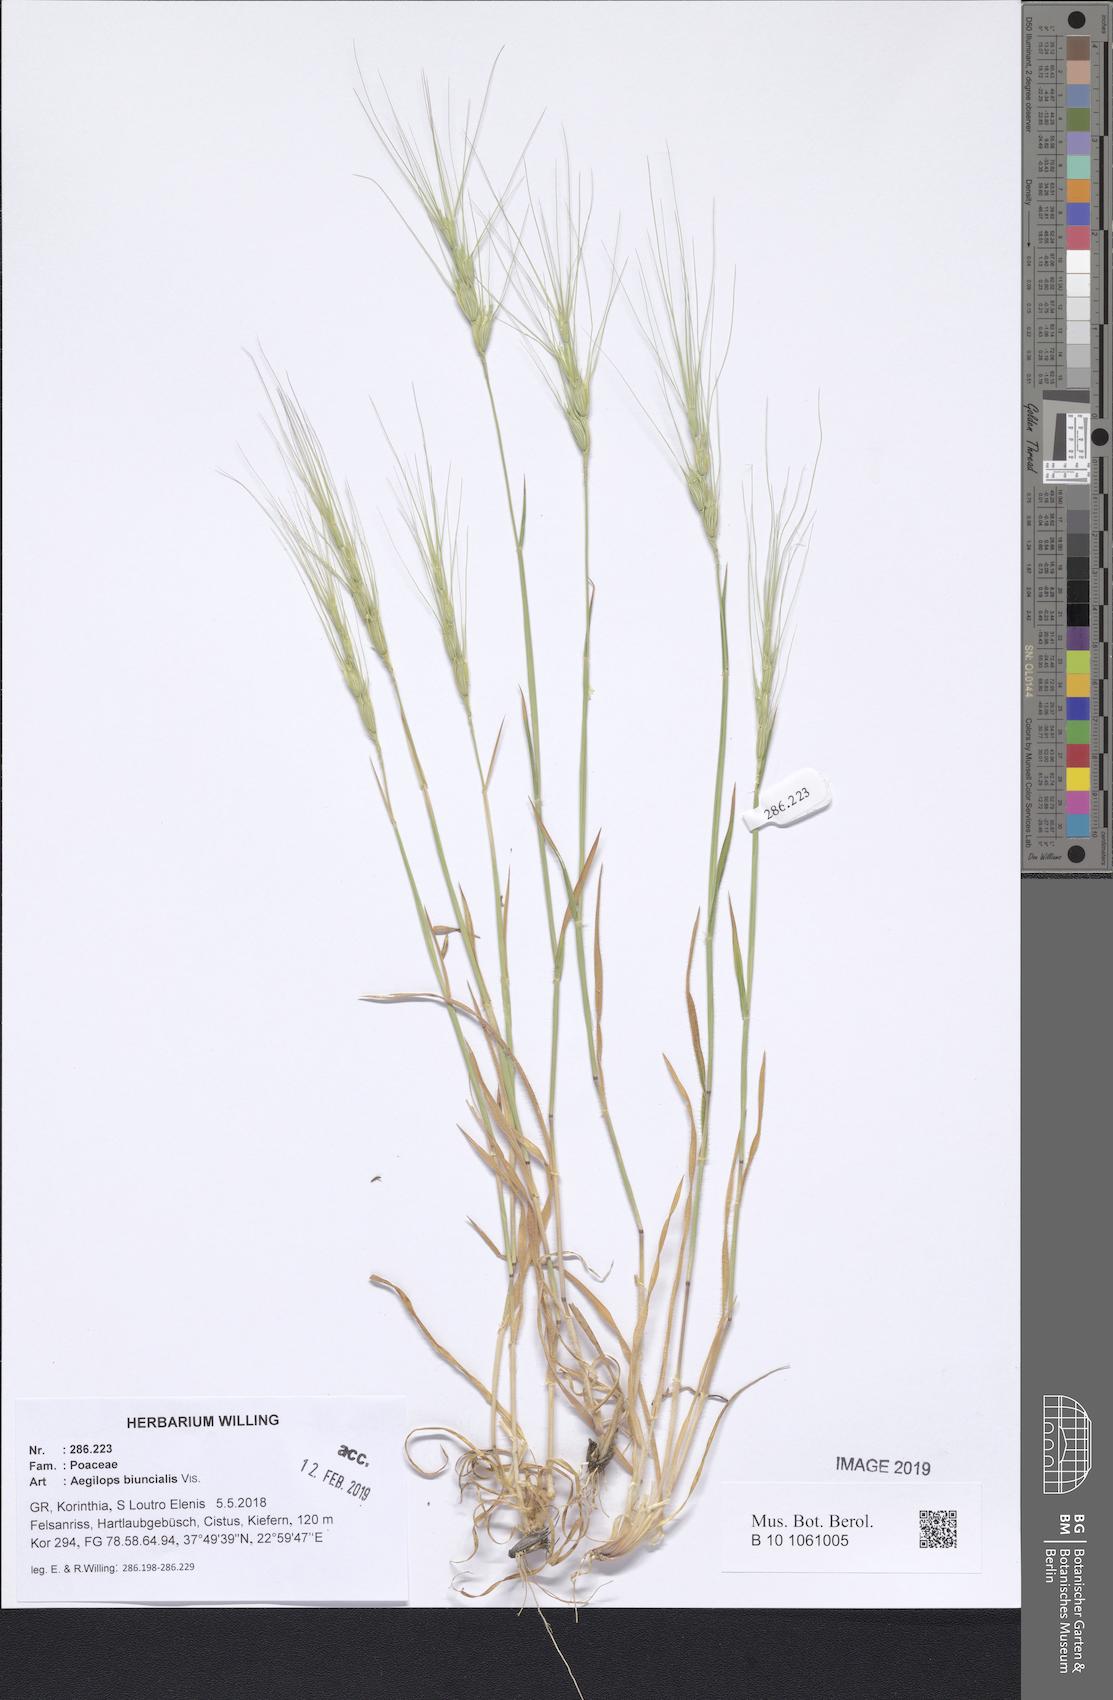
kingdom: Plantae
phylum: Tracheophyta
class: Liliopsida
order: Poales
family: Poaceae
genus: Aegilops
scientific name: Aegilops biuncialis
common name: Mediterranean aegilops
